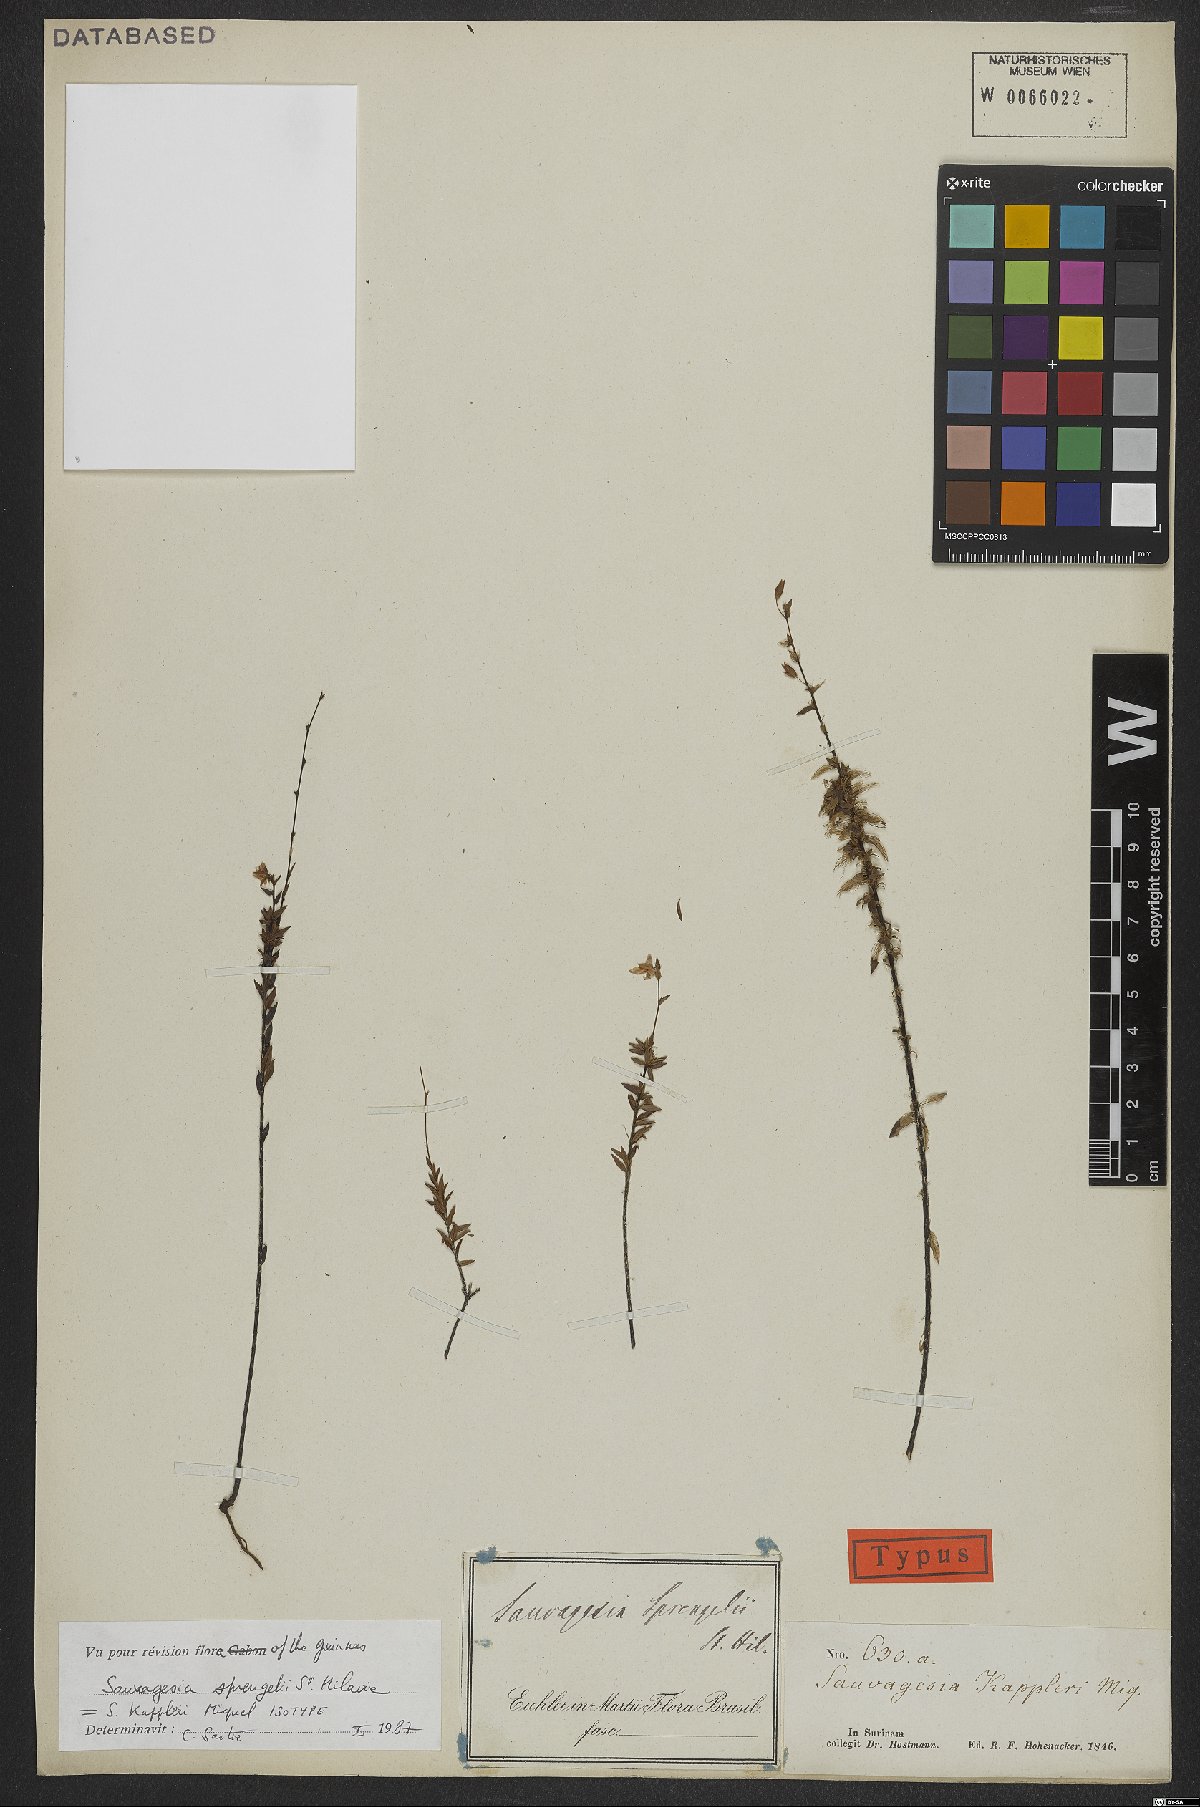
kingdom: Plantae
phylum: Tracheophyta
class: Magnoliopsida
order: Malpighiales
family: Ochnaceae
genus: Sauvagesia
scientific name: Sauvagesia sprengelii
